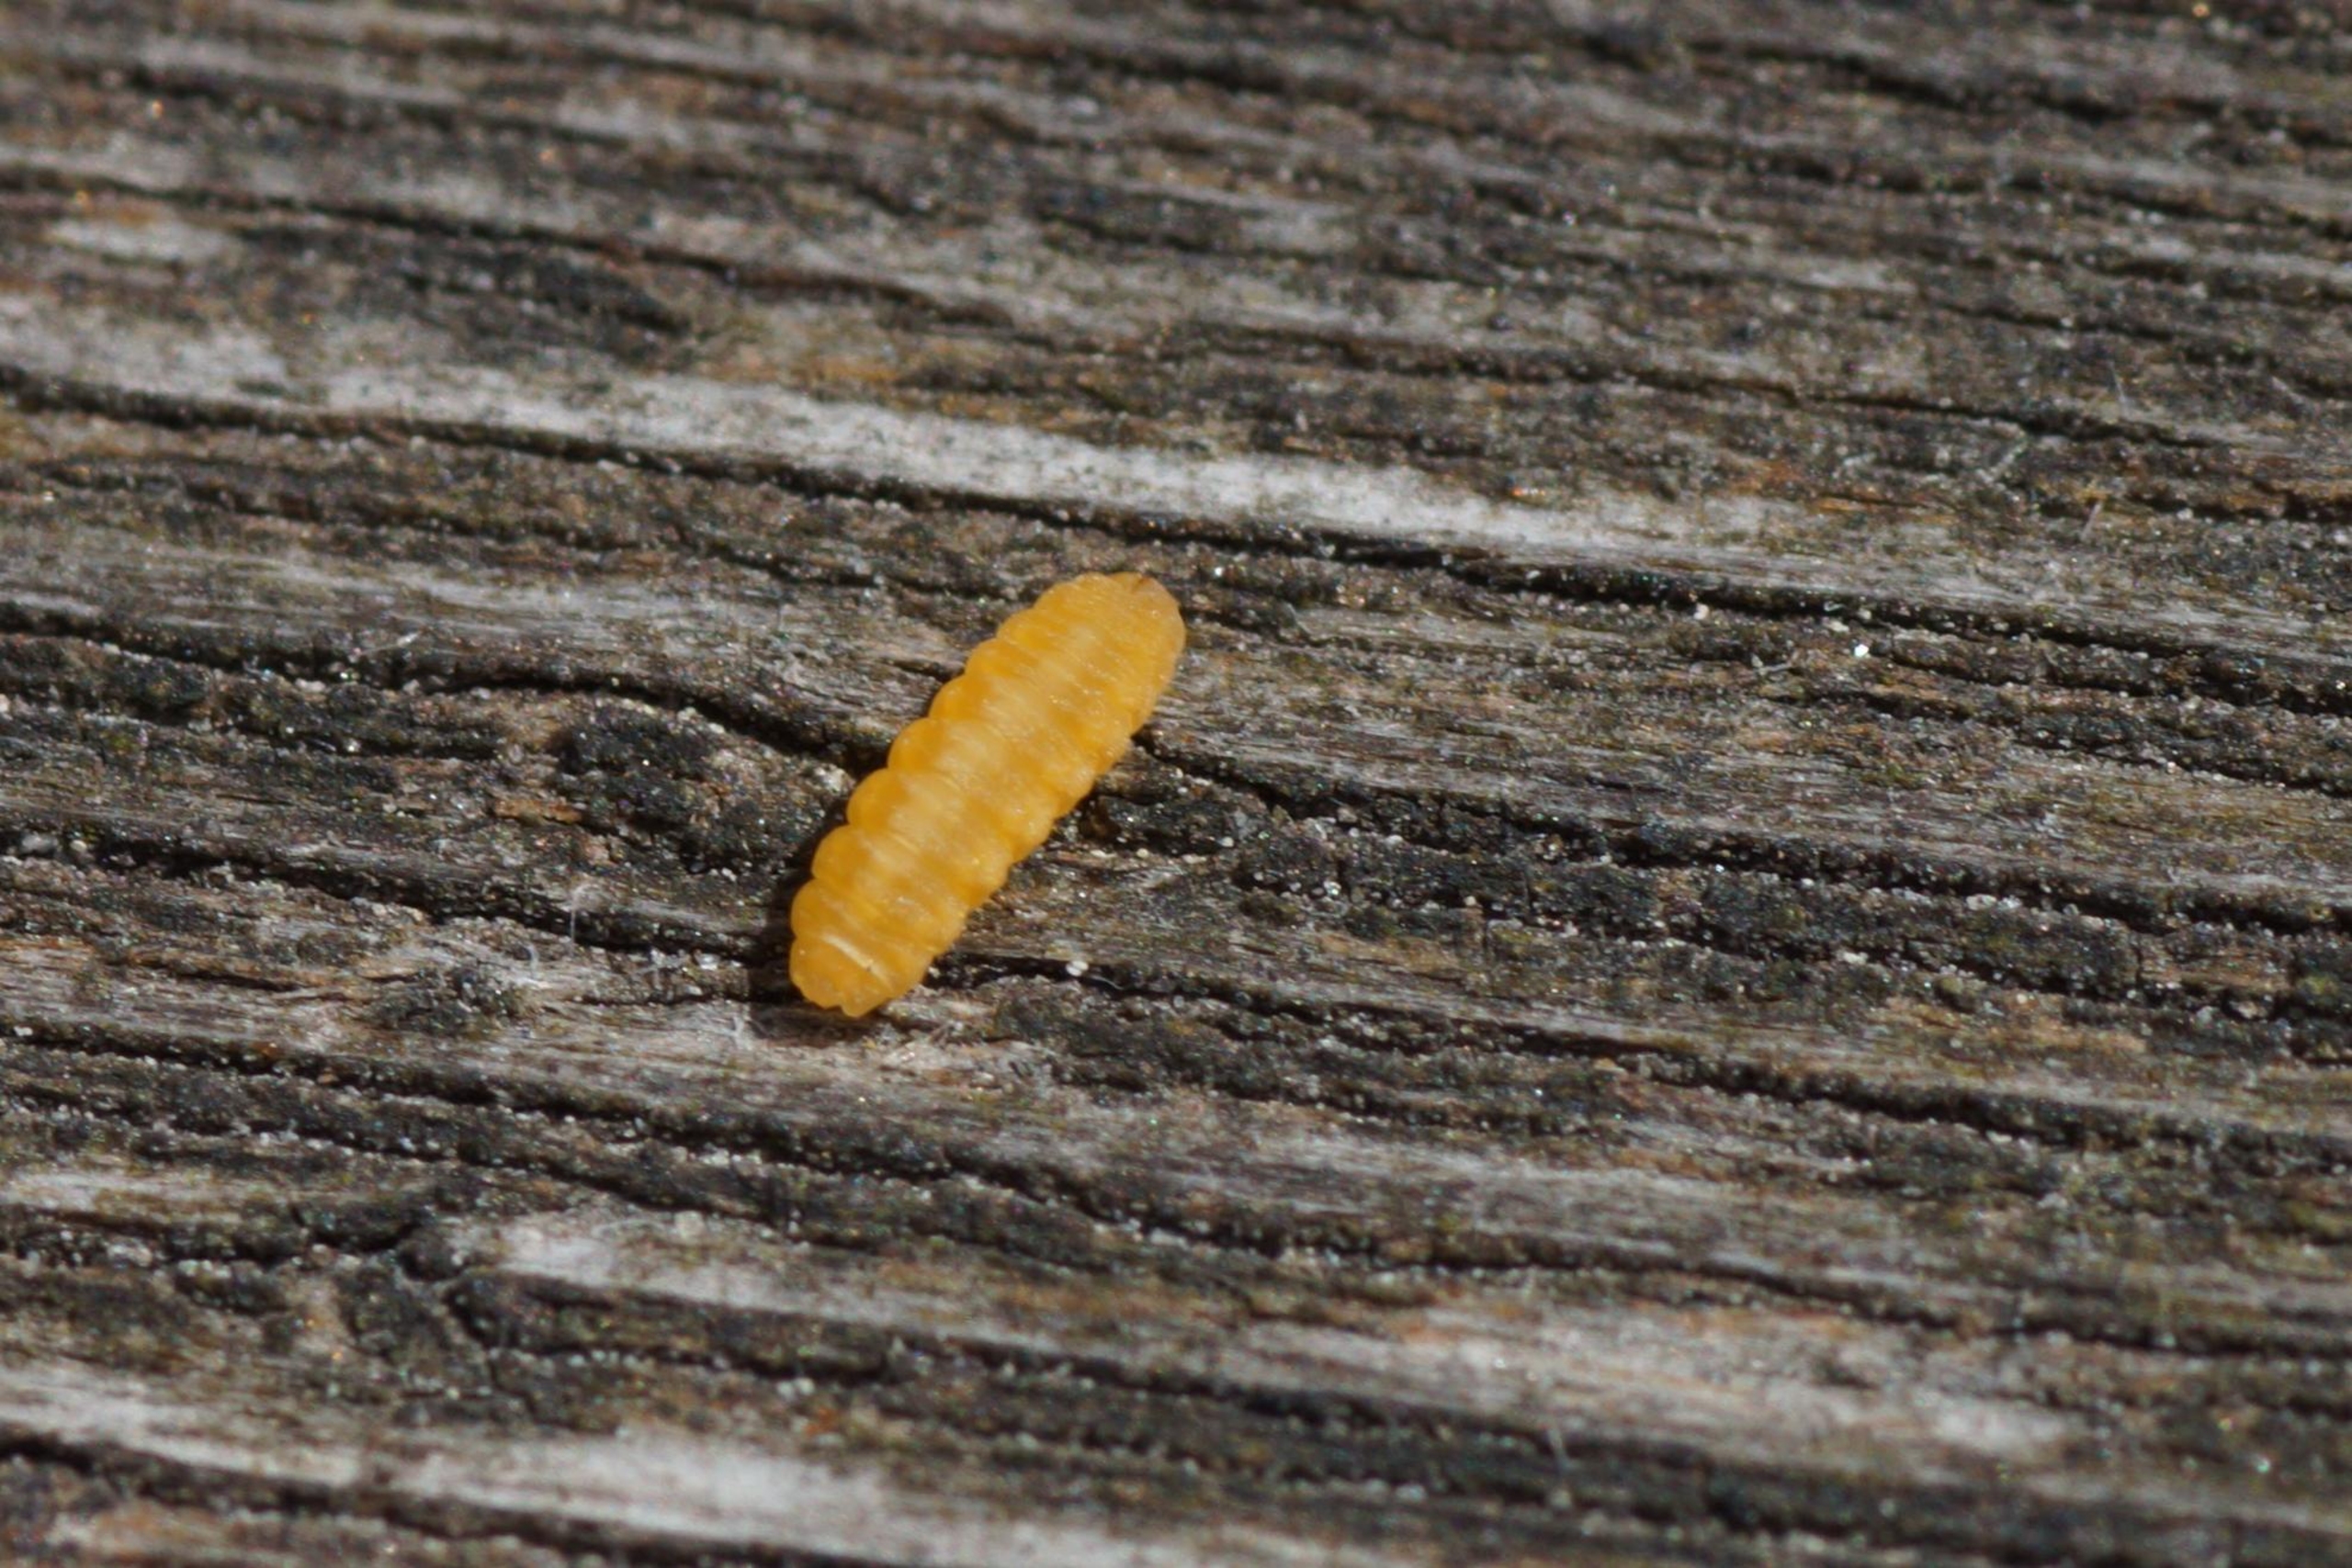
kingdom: Animalia
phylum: Arthropoda
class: Insecta
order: Diptera
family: Cecidomyiidae
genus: Placochela
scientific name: Placochela nigripes
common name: Hyldeblomstgalmyg
